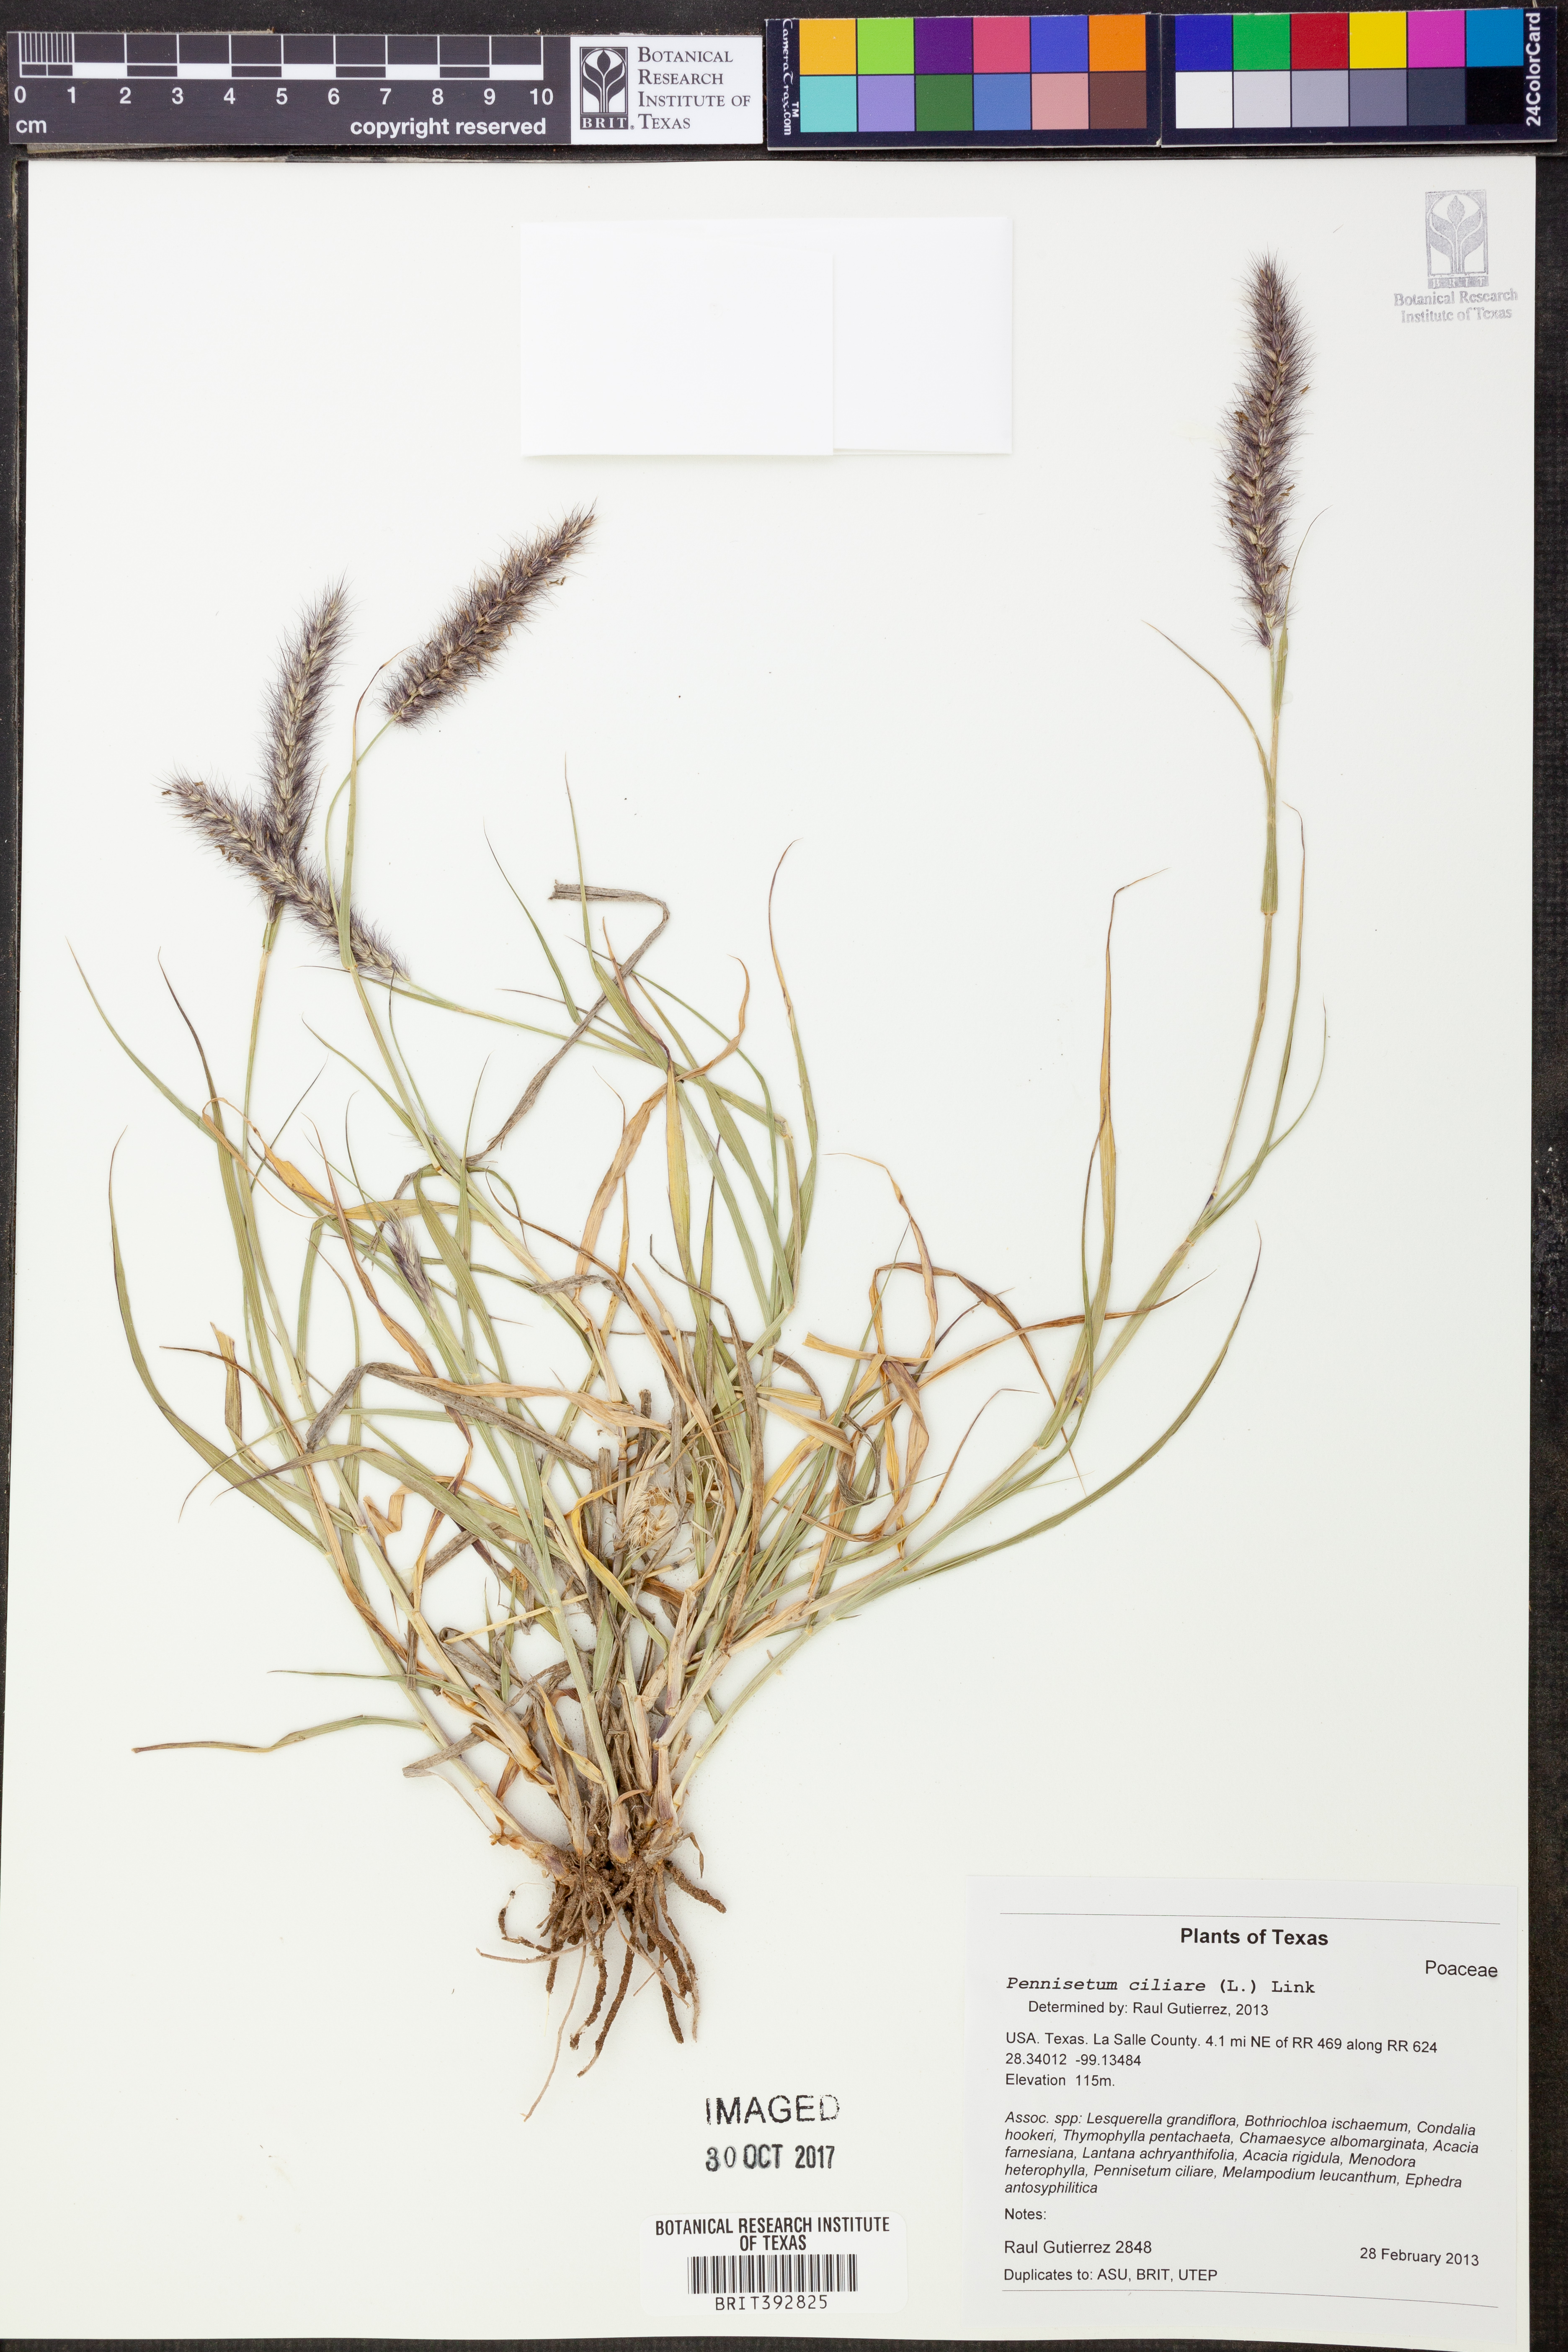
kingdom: Plantae
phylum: Tracheophyta
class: Liliopsida
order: Poales
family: Poaceae
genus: Cenchrus
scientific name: Cenchrus ciliaris
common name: Buffelgrass
